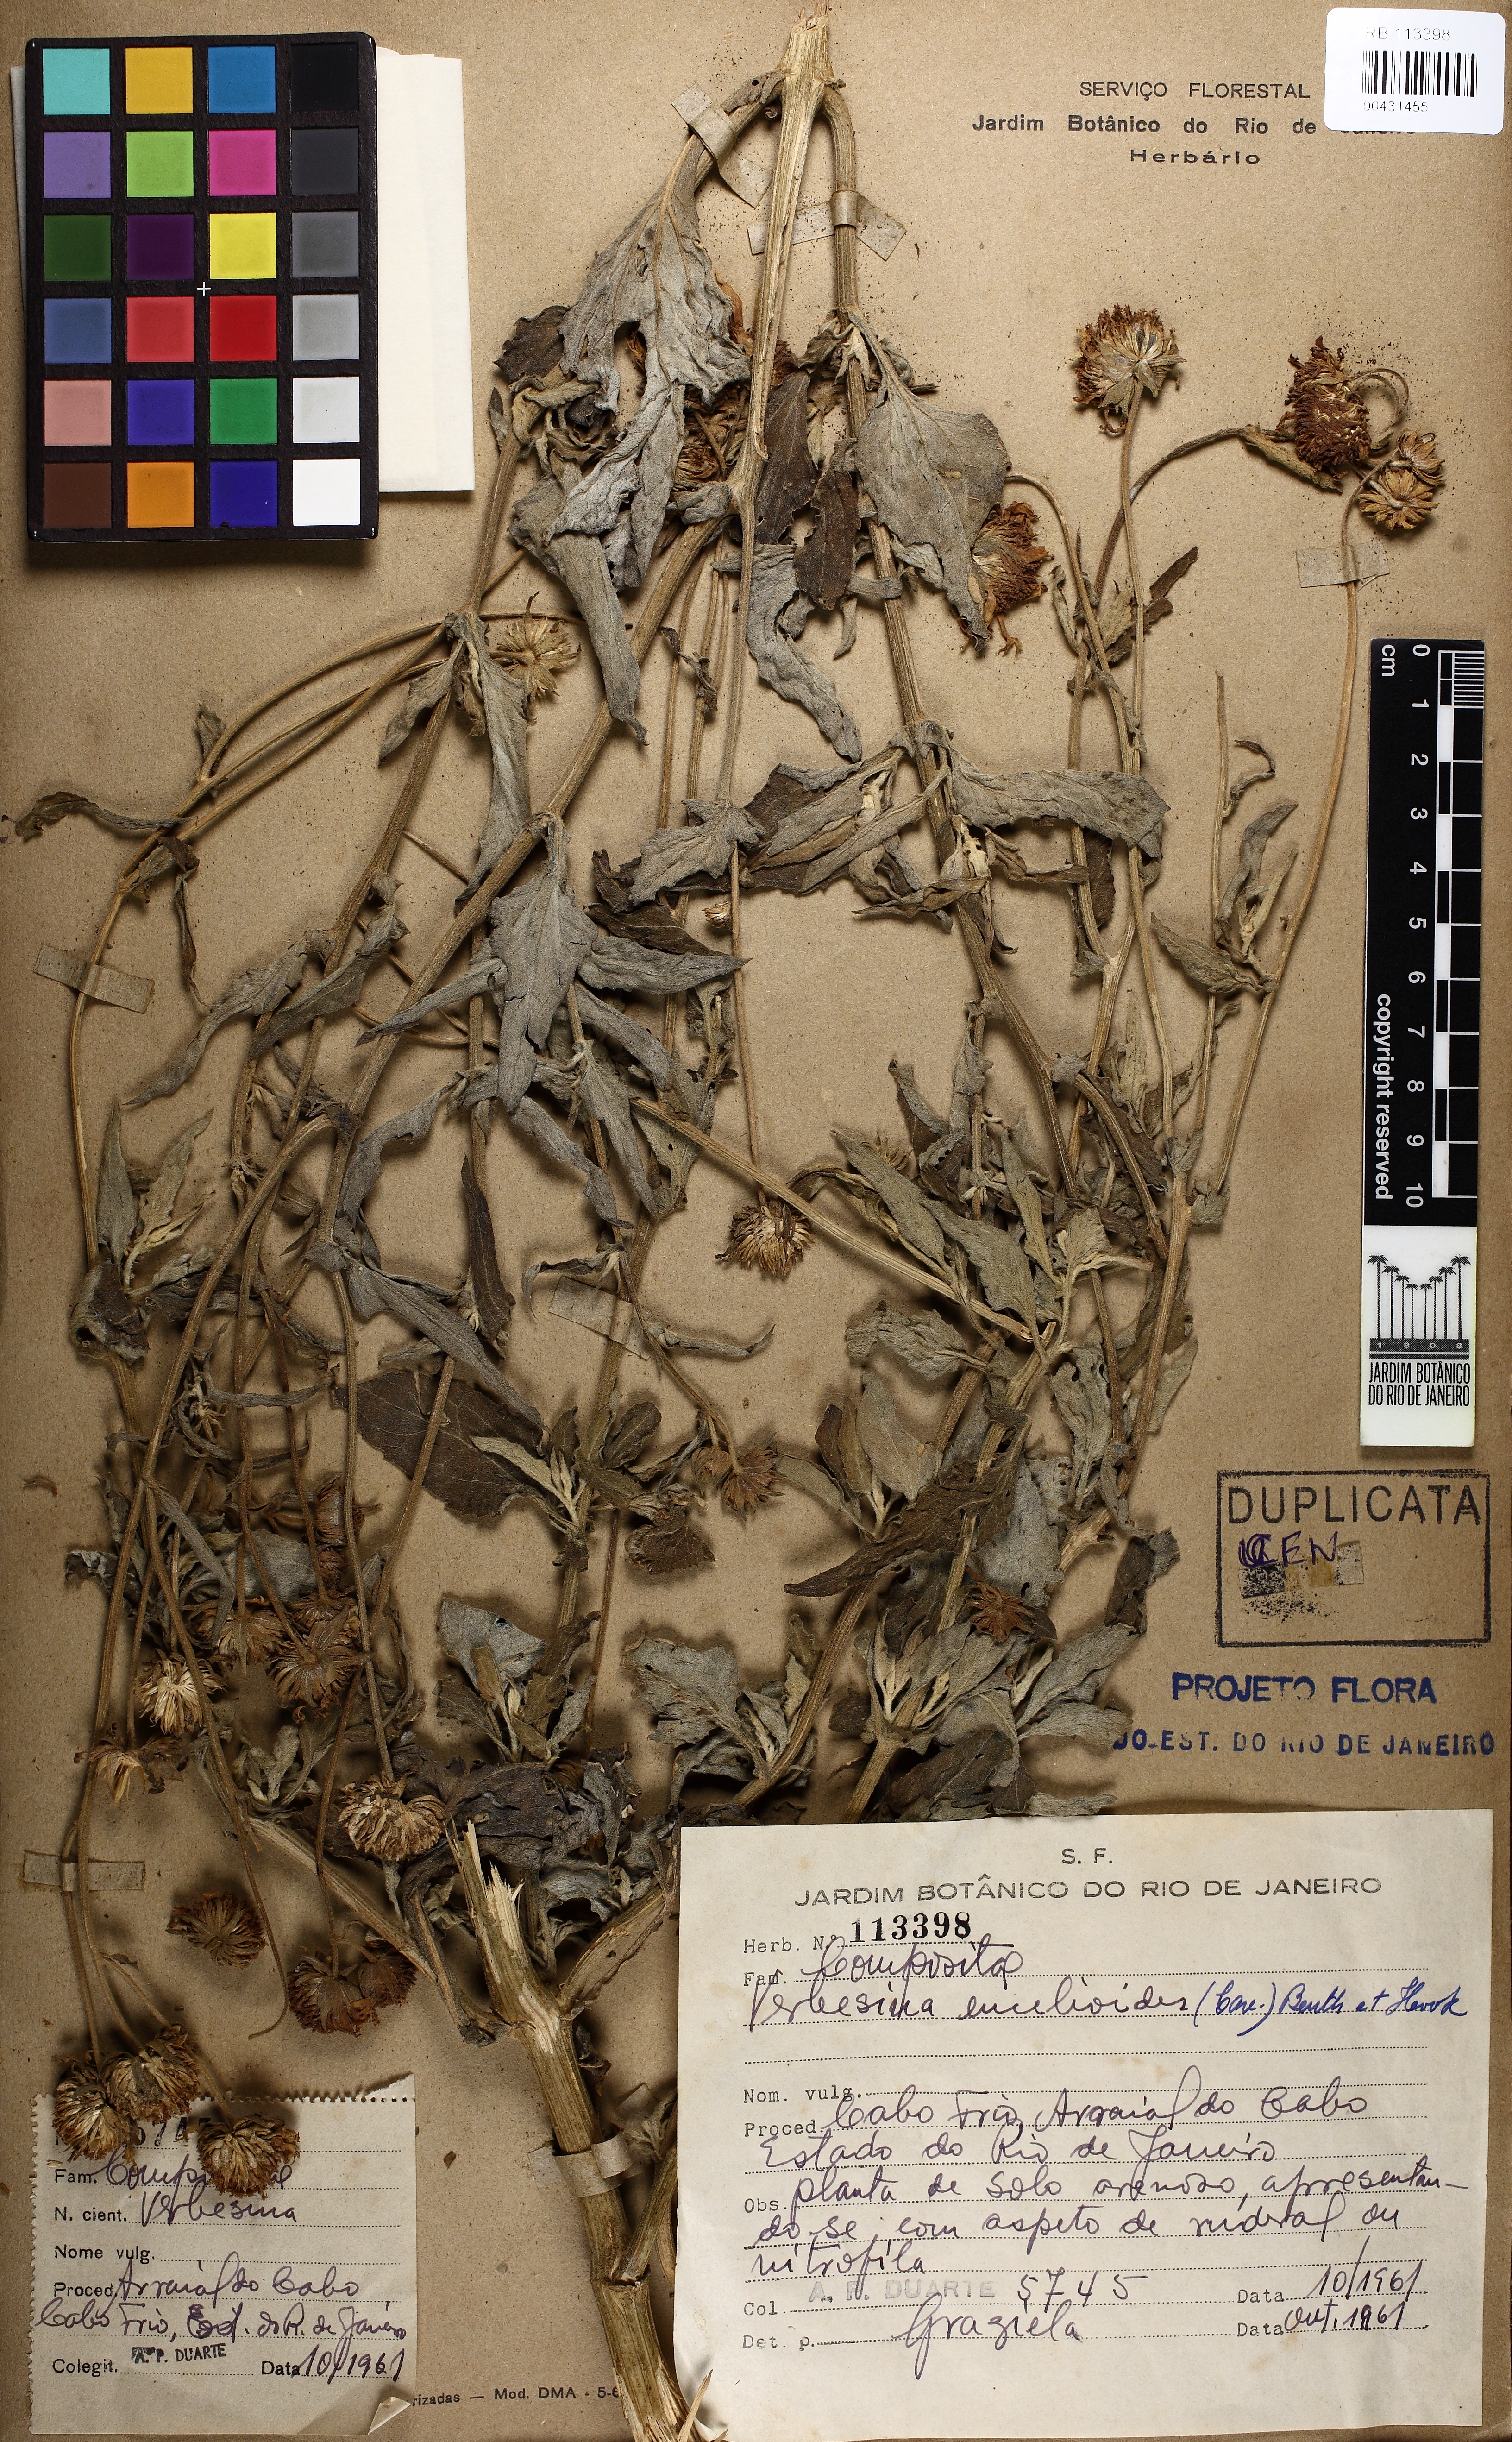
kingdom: Plantae
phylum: Tracheophyta
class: Magnoliopsida
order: Asterales
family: Asteraceae
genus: Verbesina
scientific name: Verbesina encelioides
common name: Golden crownbeard
